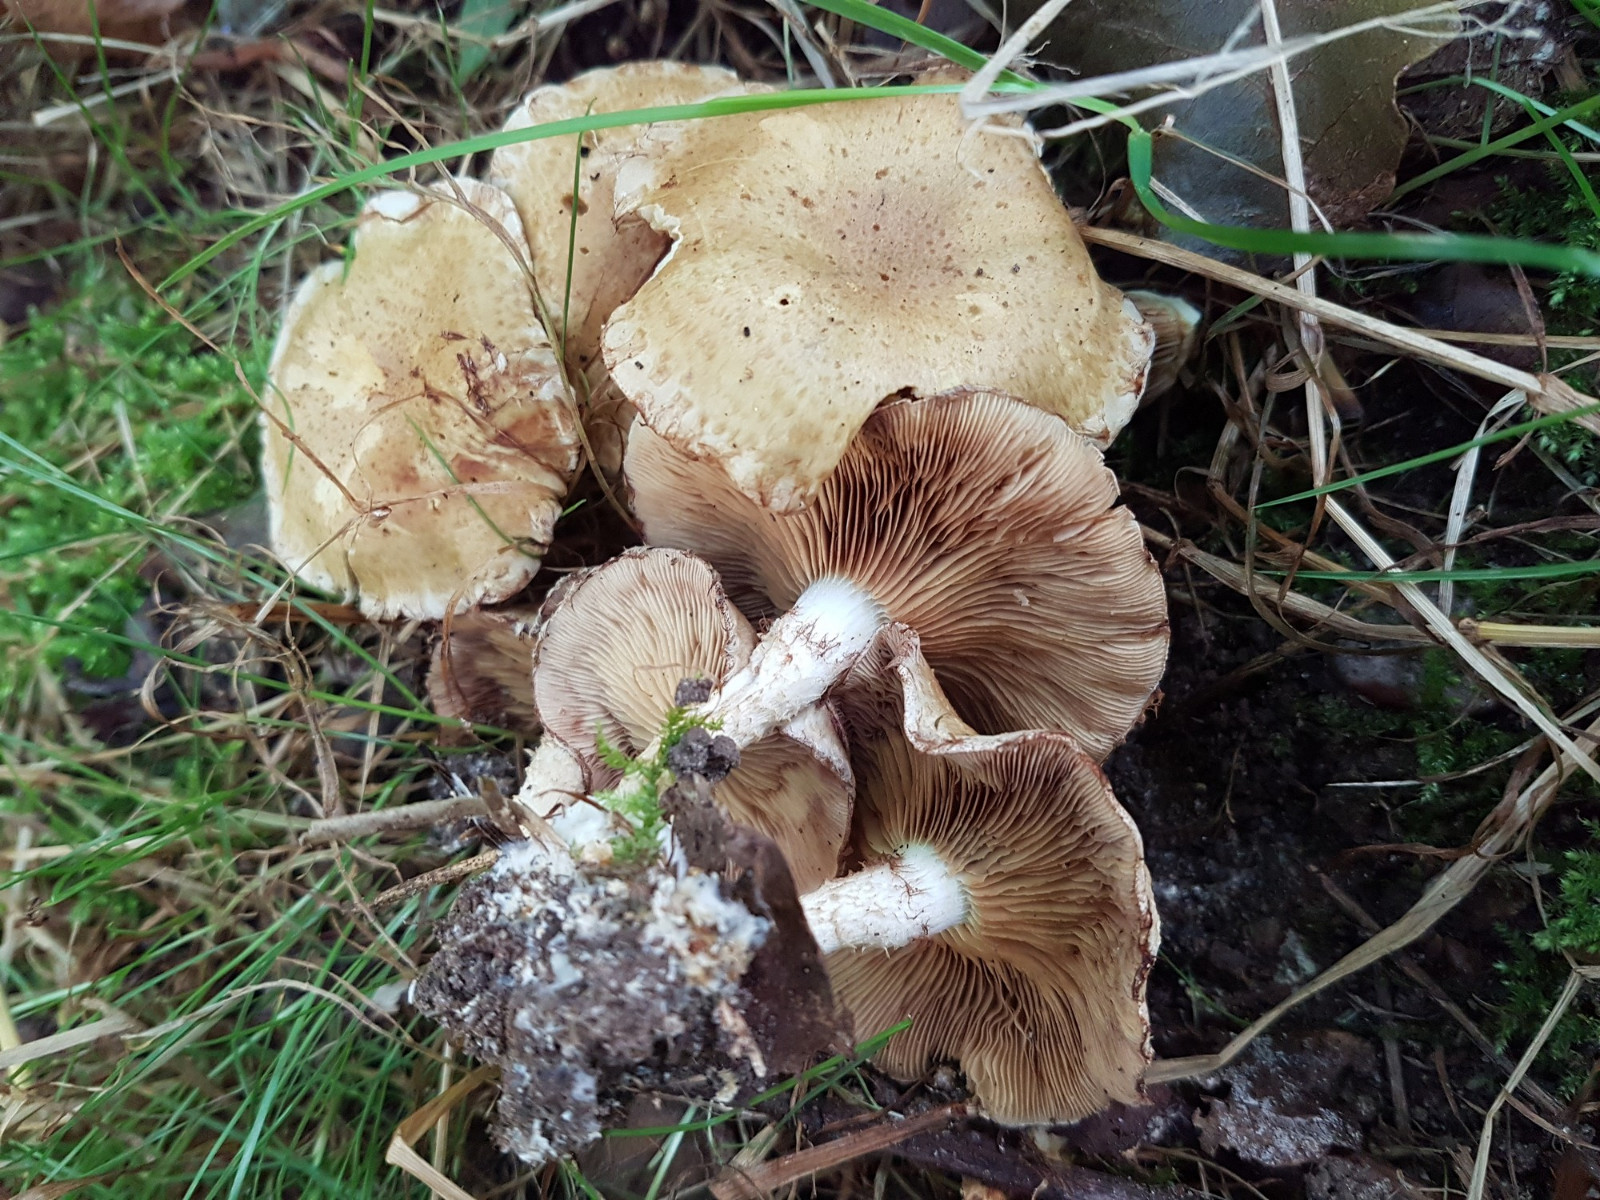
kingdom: Fungi
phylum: Basidiomycota
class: Agaricomycetes
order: Agaricales
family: Strophariaceae
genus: Pholiota
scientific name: Pholiota gummosa
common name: grøngul skælhat
